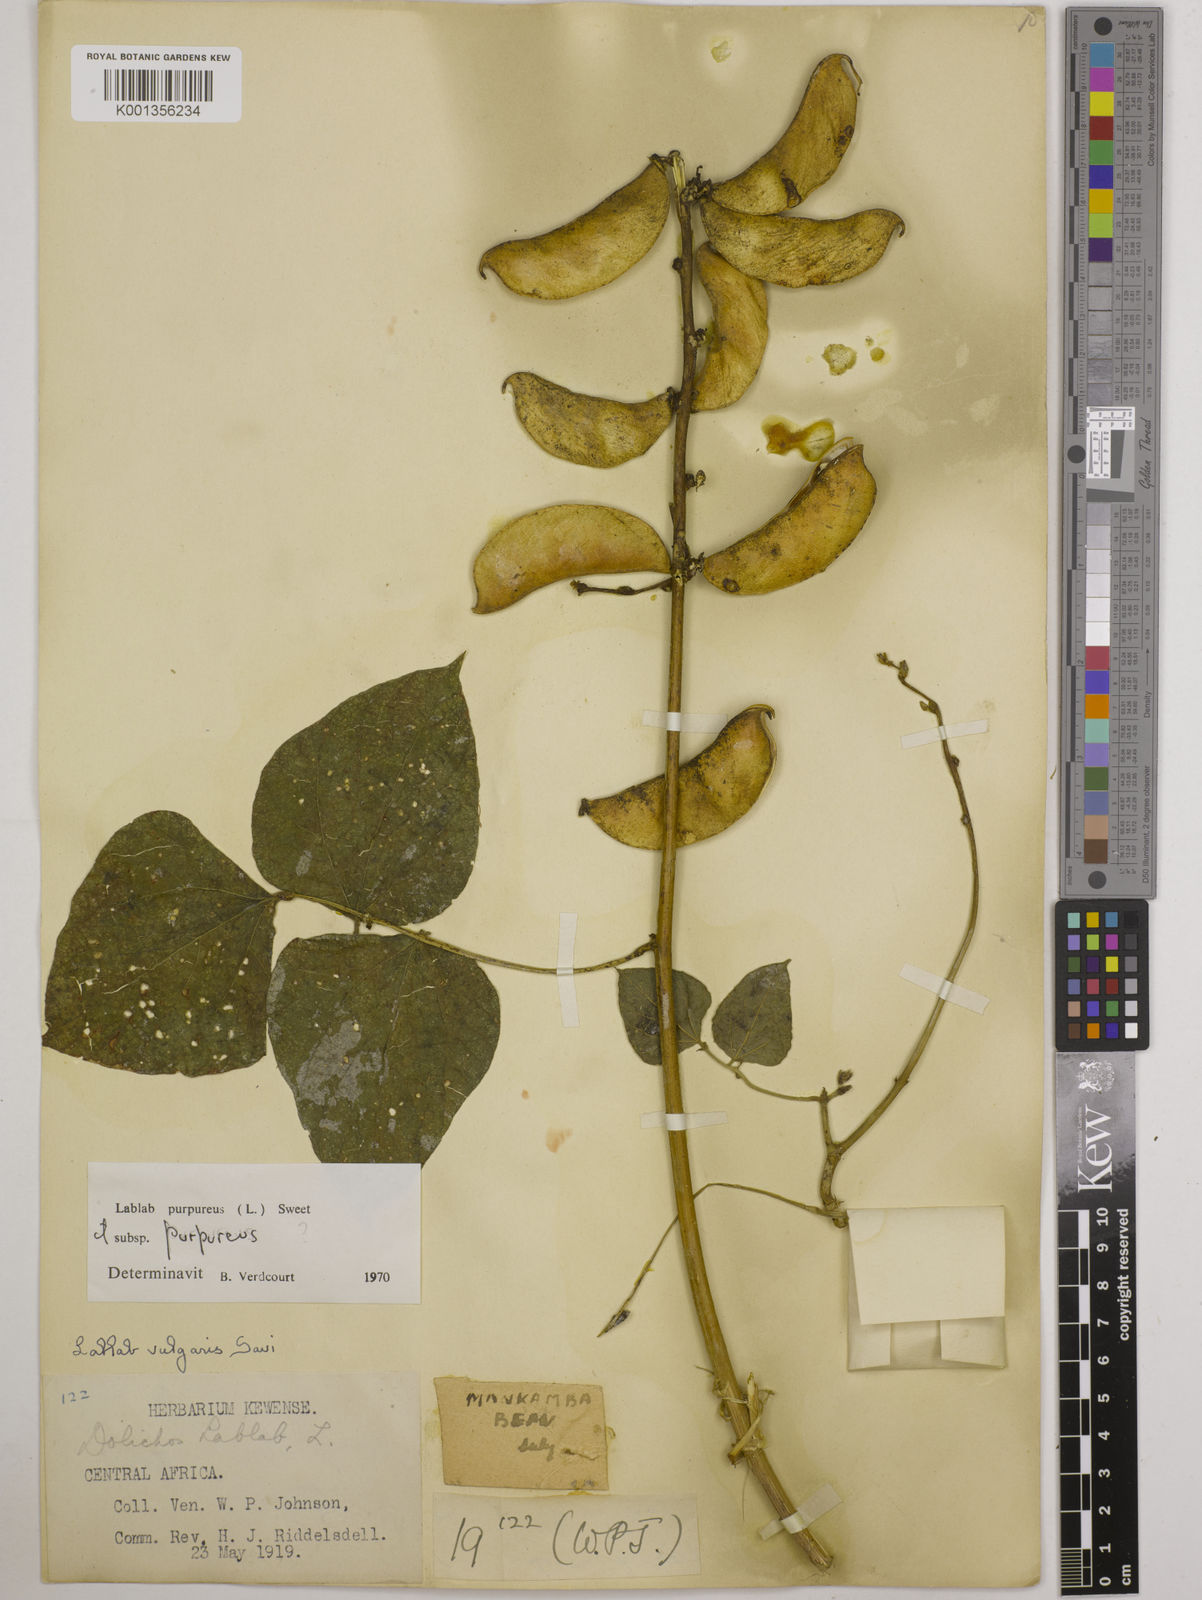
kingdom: Plantae
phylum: Tracheophyta
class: Magnoliopsida
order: Fabales
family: Fabaceae
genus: Lablab
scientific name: Lablab purpureus
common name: Lablab-bean
